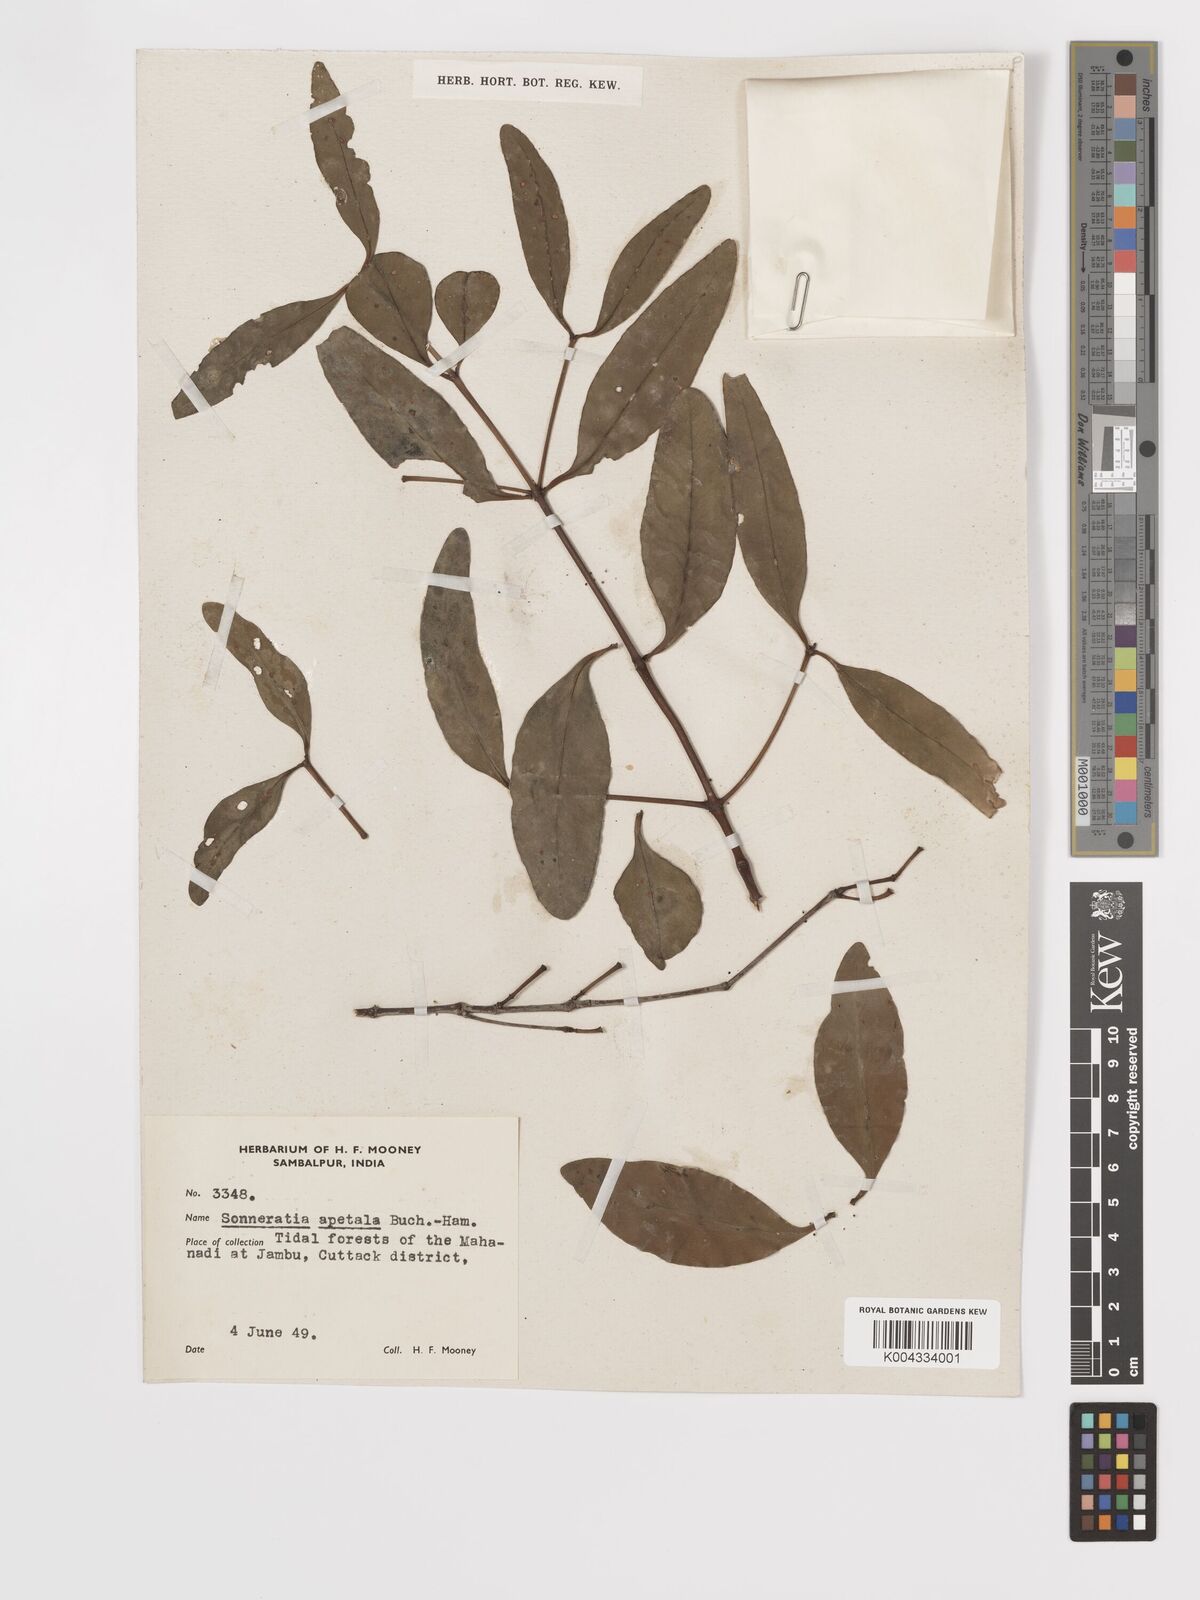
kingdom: Plantae
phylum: Tracheophyta
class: Magnoliopsida
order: Myrtales
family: Lythraceae
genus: Sonneratia
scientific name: Sonneratia apetala
